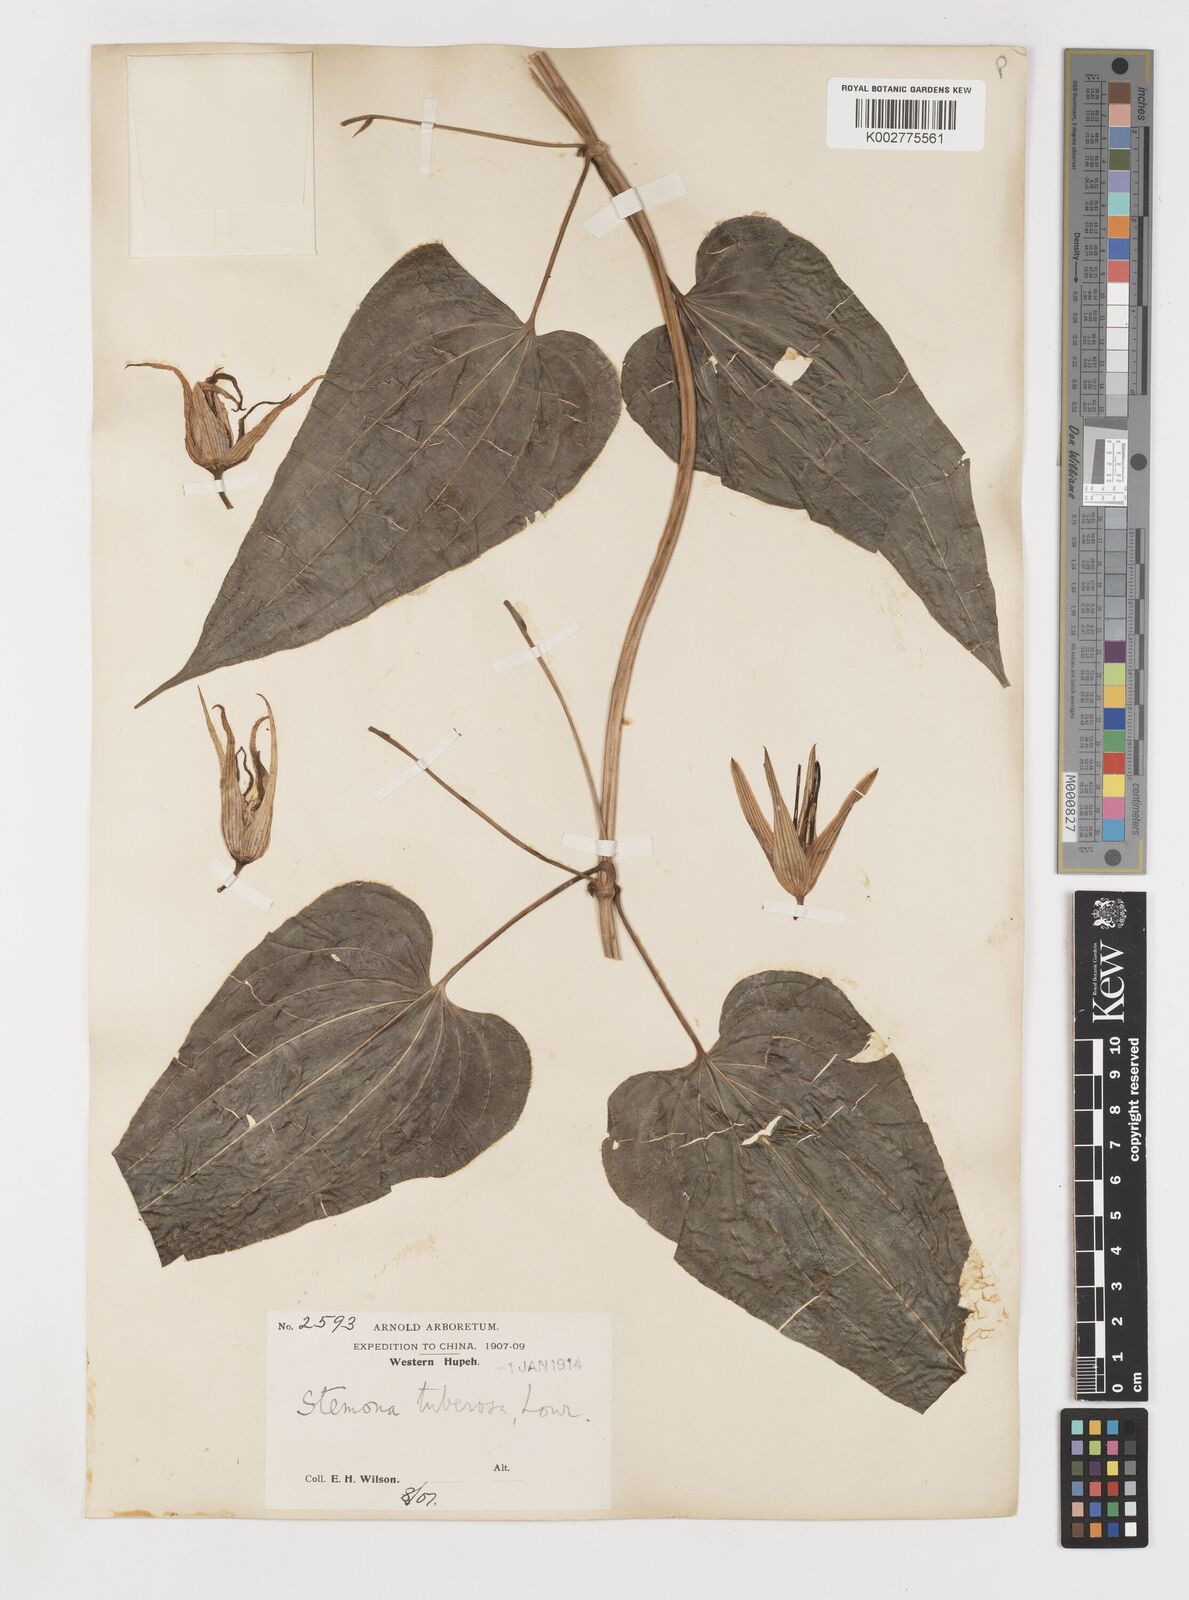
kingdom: Plantae
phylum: Tracheophyta
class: Liliopsida
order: Pandanales
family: Stemonaceae
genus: Stemona
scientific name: Stemona tuberosa
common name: Stemona
